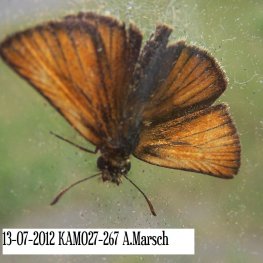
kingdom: Animalia
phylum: Arthropoda
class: Insecta
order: Lepidoptera
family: Hesperiidae
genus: Thymelicus
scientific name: Thymelicus lineola
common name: European Skipper
